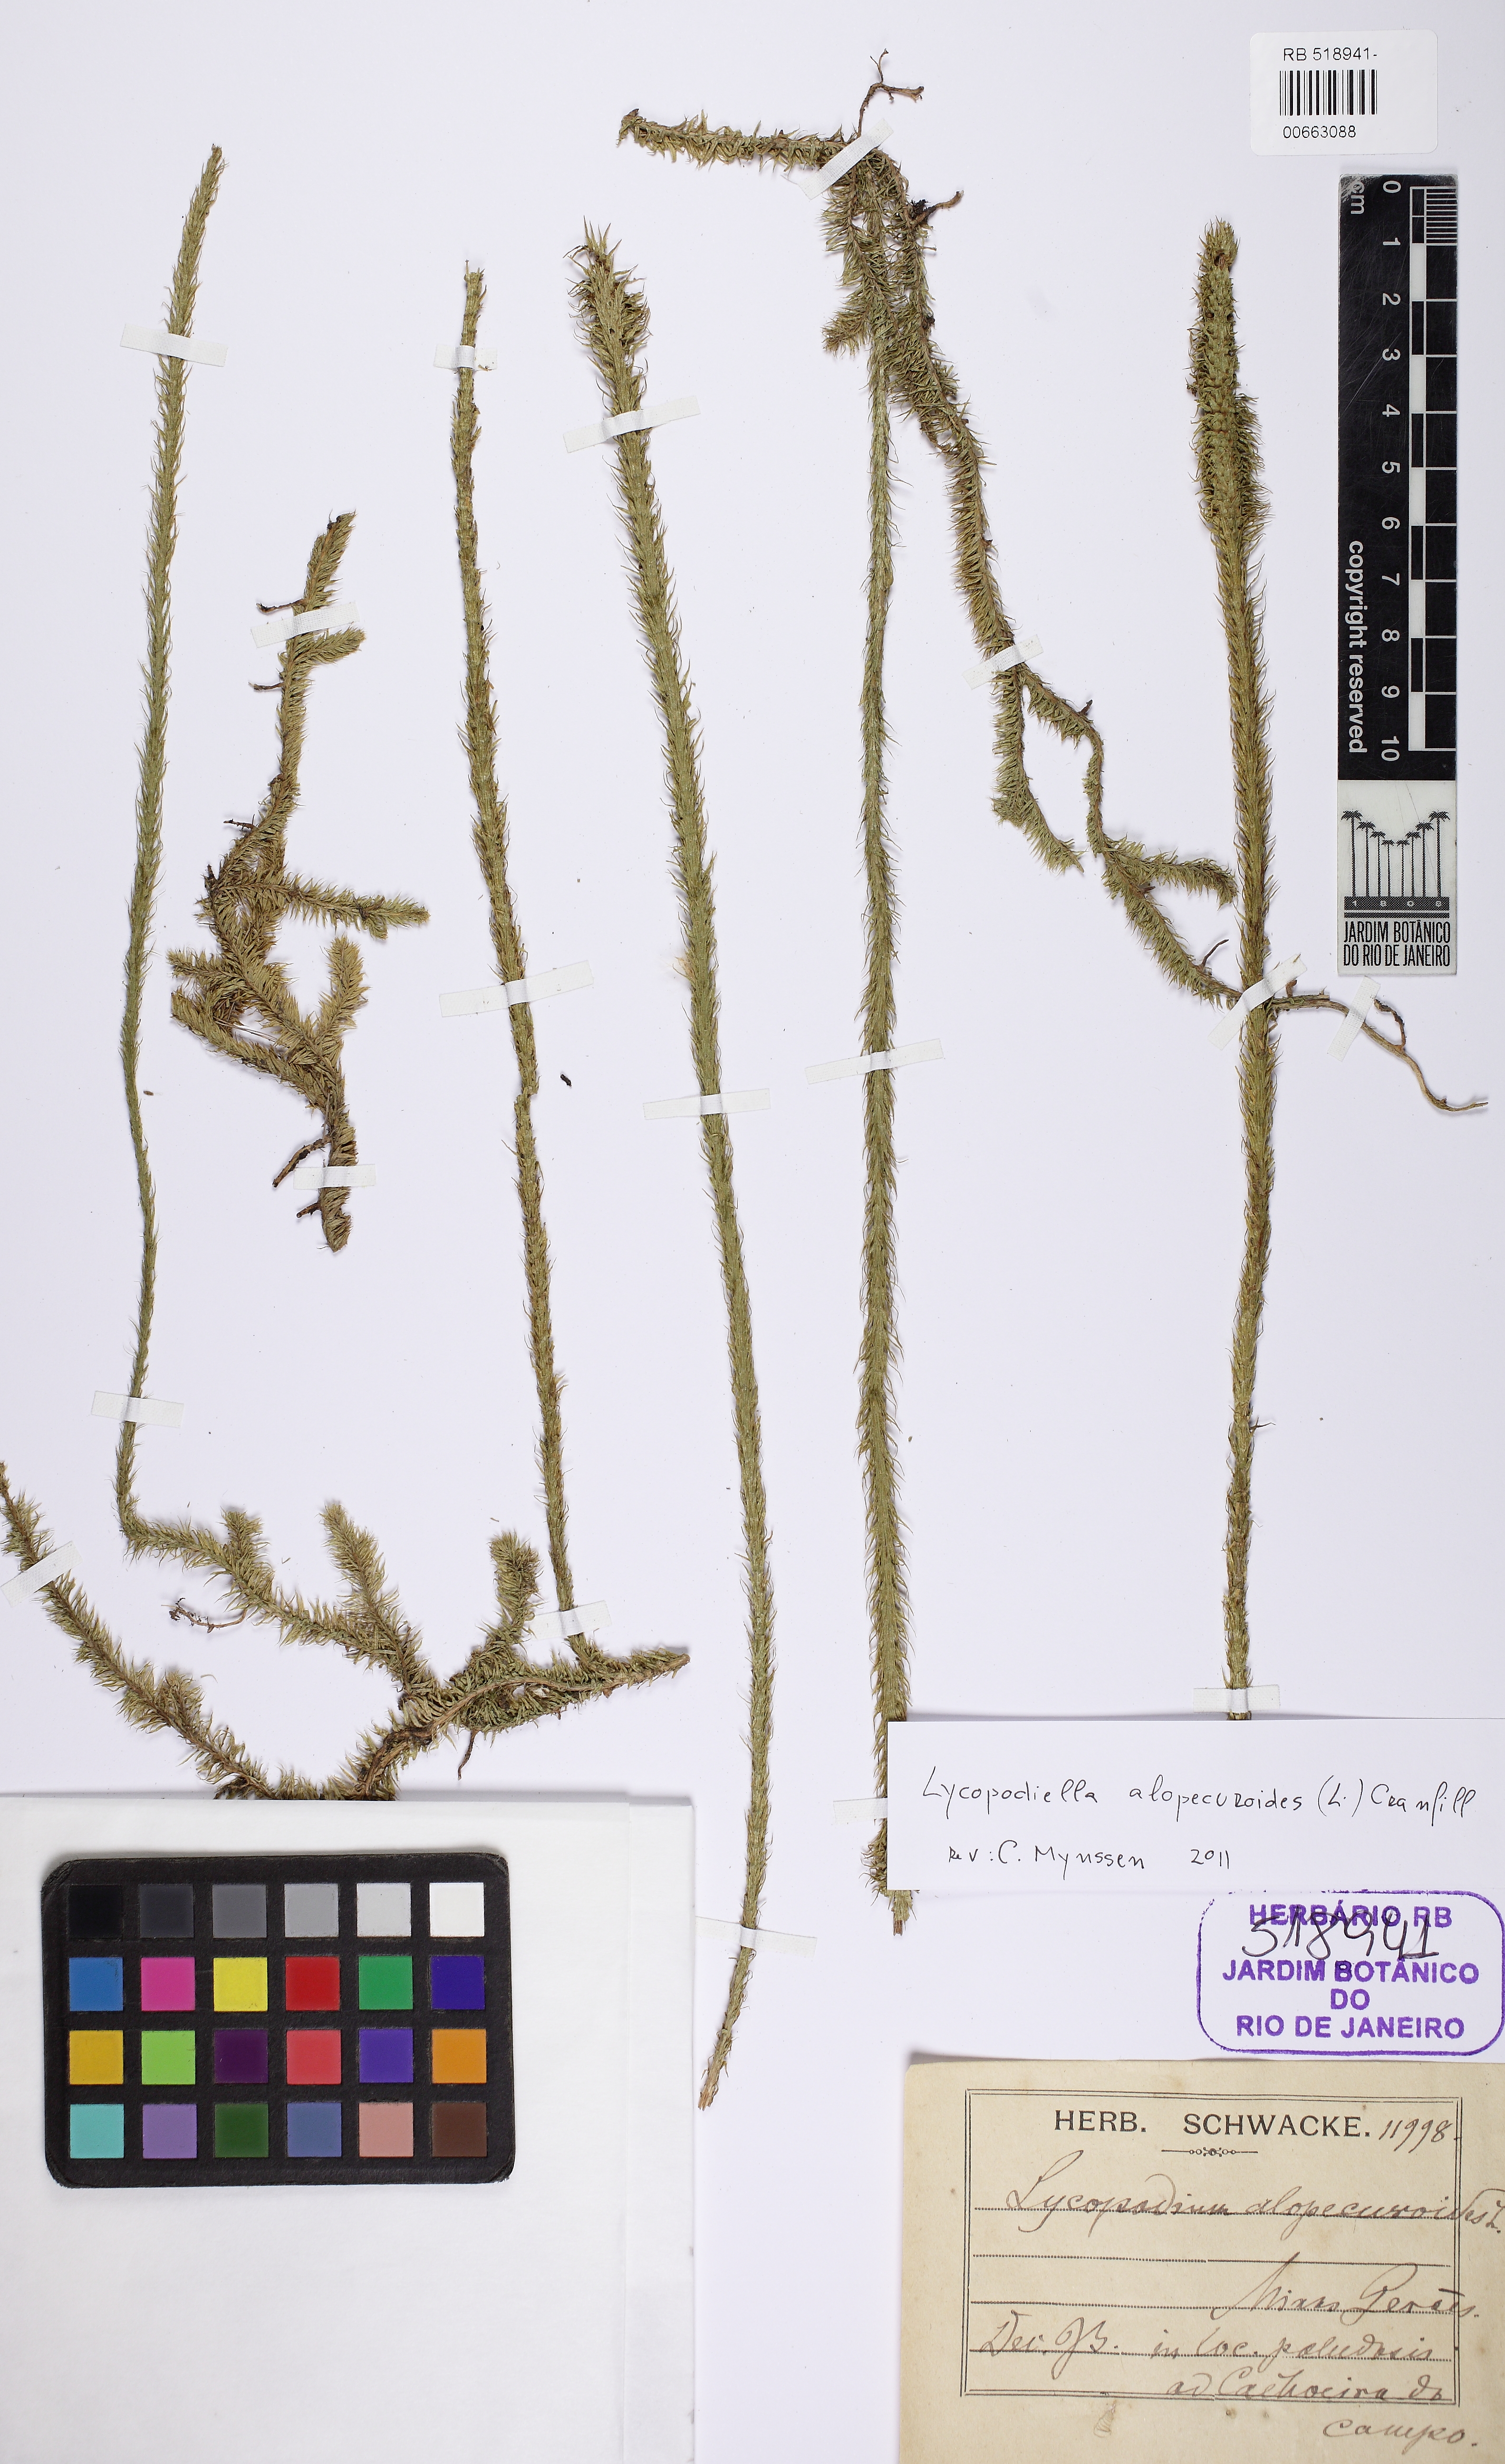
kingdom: Plantae
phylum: Tracheophyta
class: Lycopodiopsida
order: Lycopodiales
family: Lycopodiaceae
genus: Lycopodiella
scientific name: Lycopodiella alopecuroides
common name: Foxtail clubmoss
